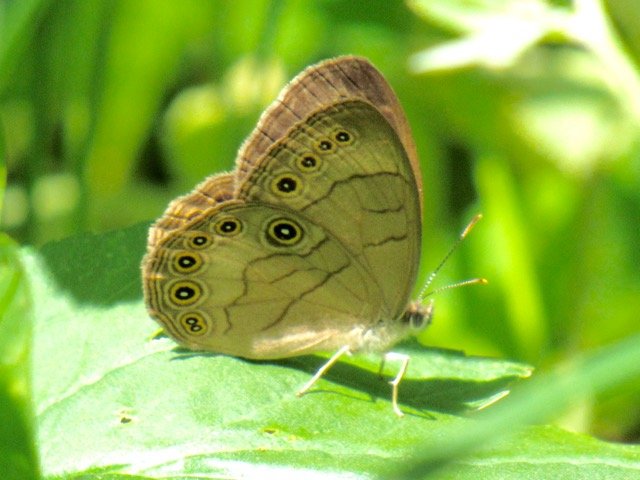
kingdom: Animalia
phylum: Arthropoda
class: Insecta
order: Lepidoptera
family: Nymphalidae
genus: Lethe
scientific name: Lethe eurydice
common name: Appalachian Eyed Brown
